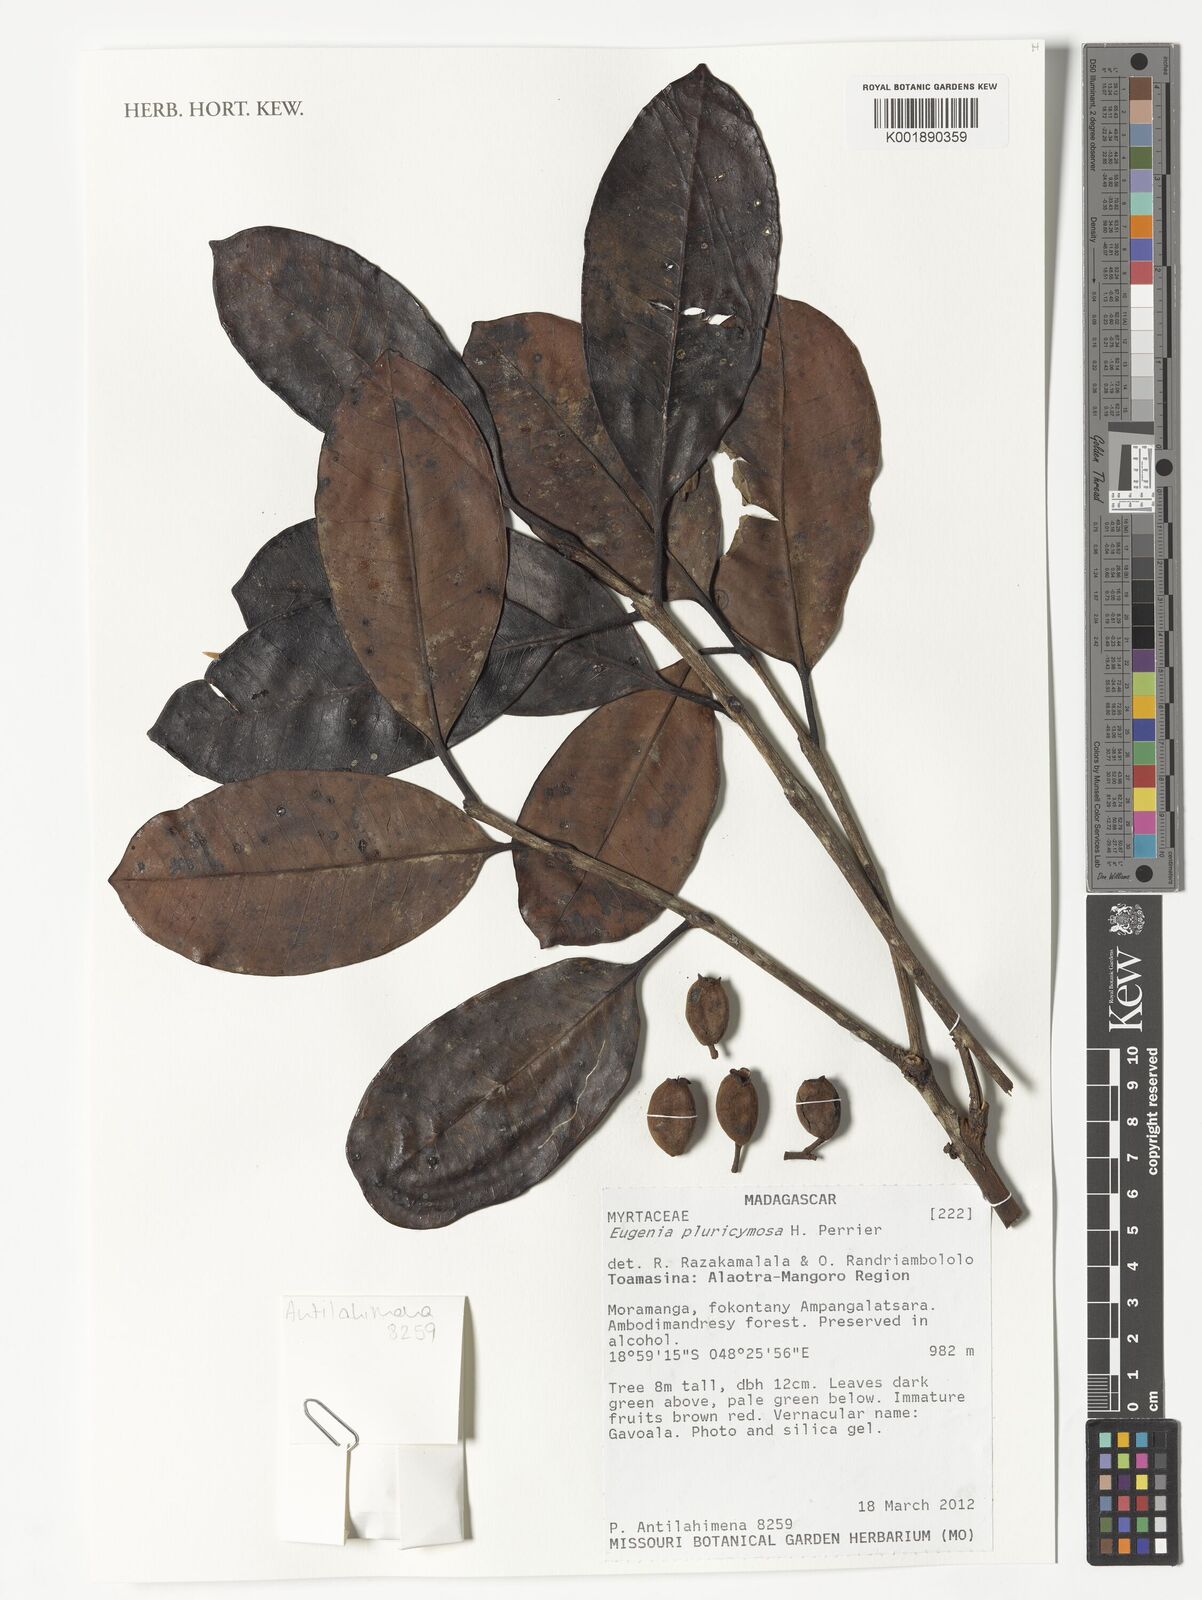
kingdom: Plantae
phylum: Tracheophyta
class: Magnoliopsida
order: Myrtales
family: Myrtaceae
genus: Eugenia
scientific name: Eugenia pluricymosa
